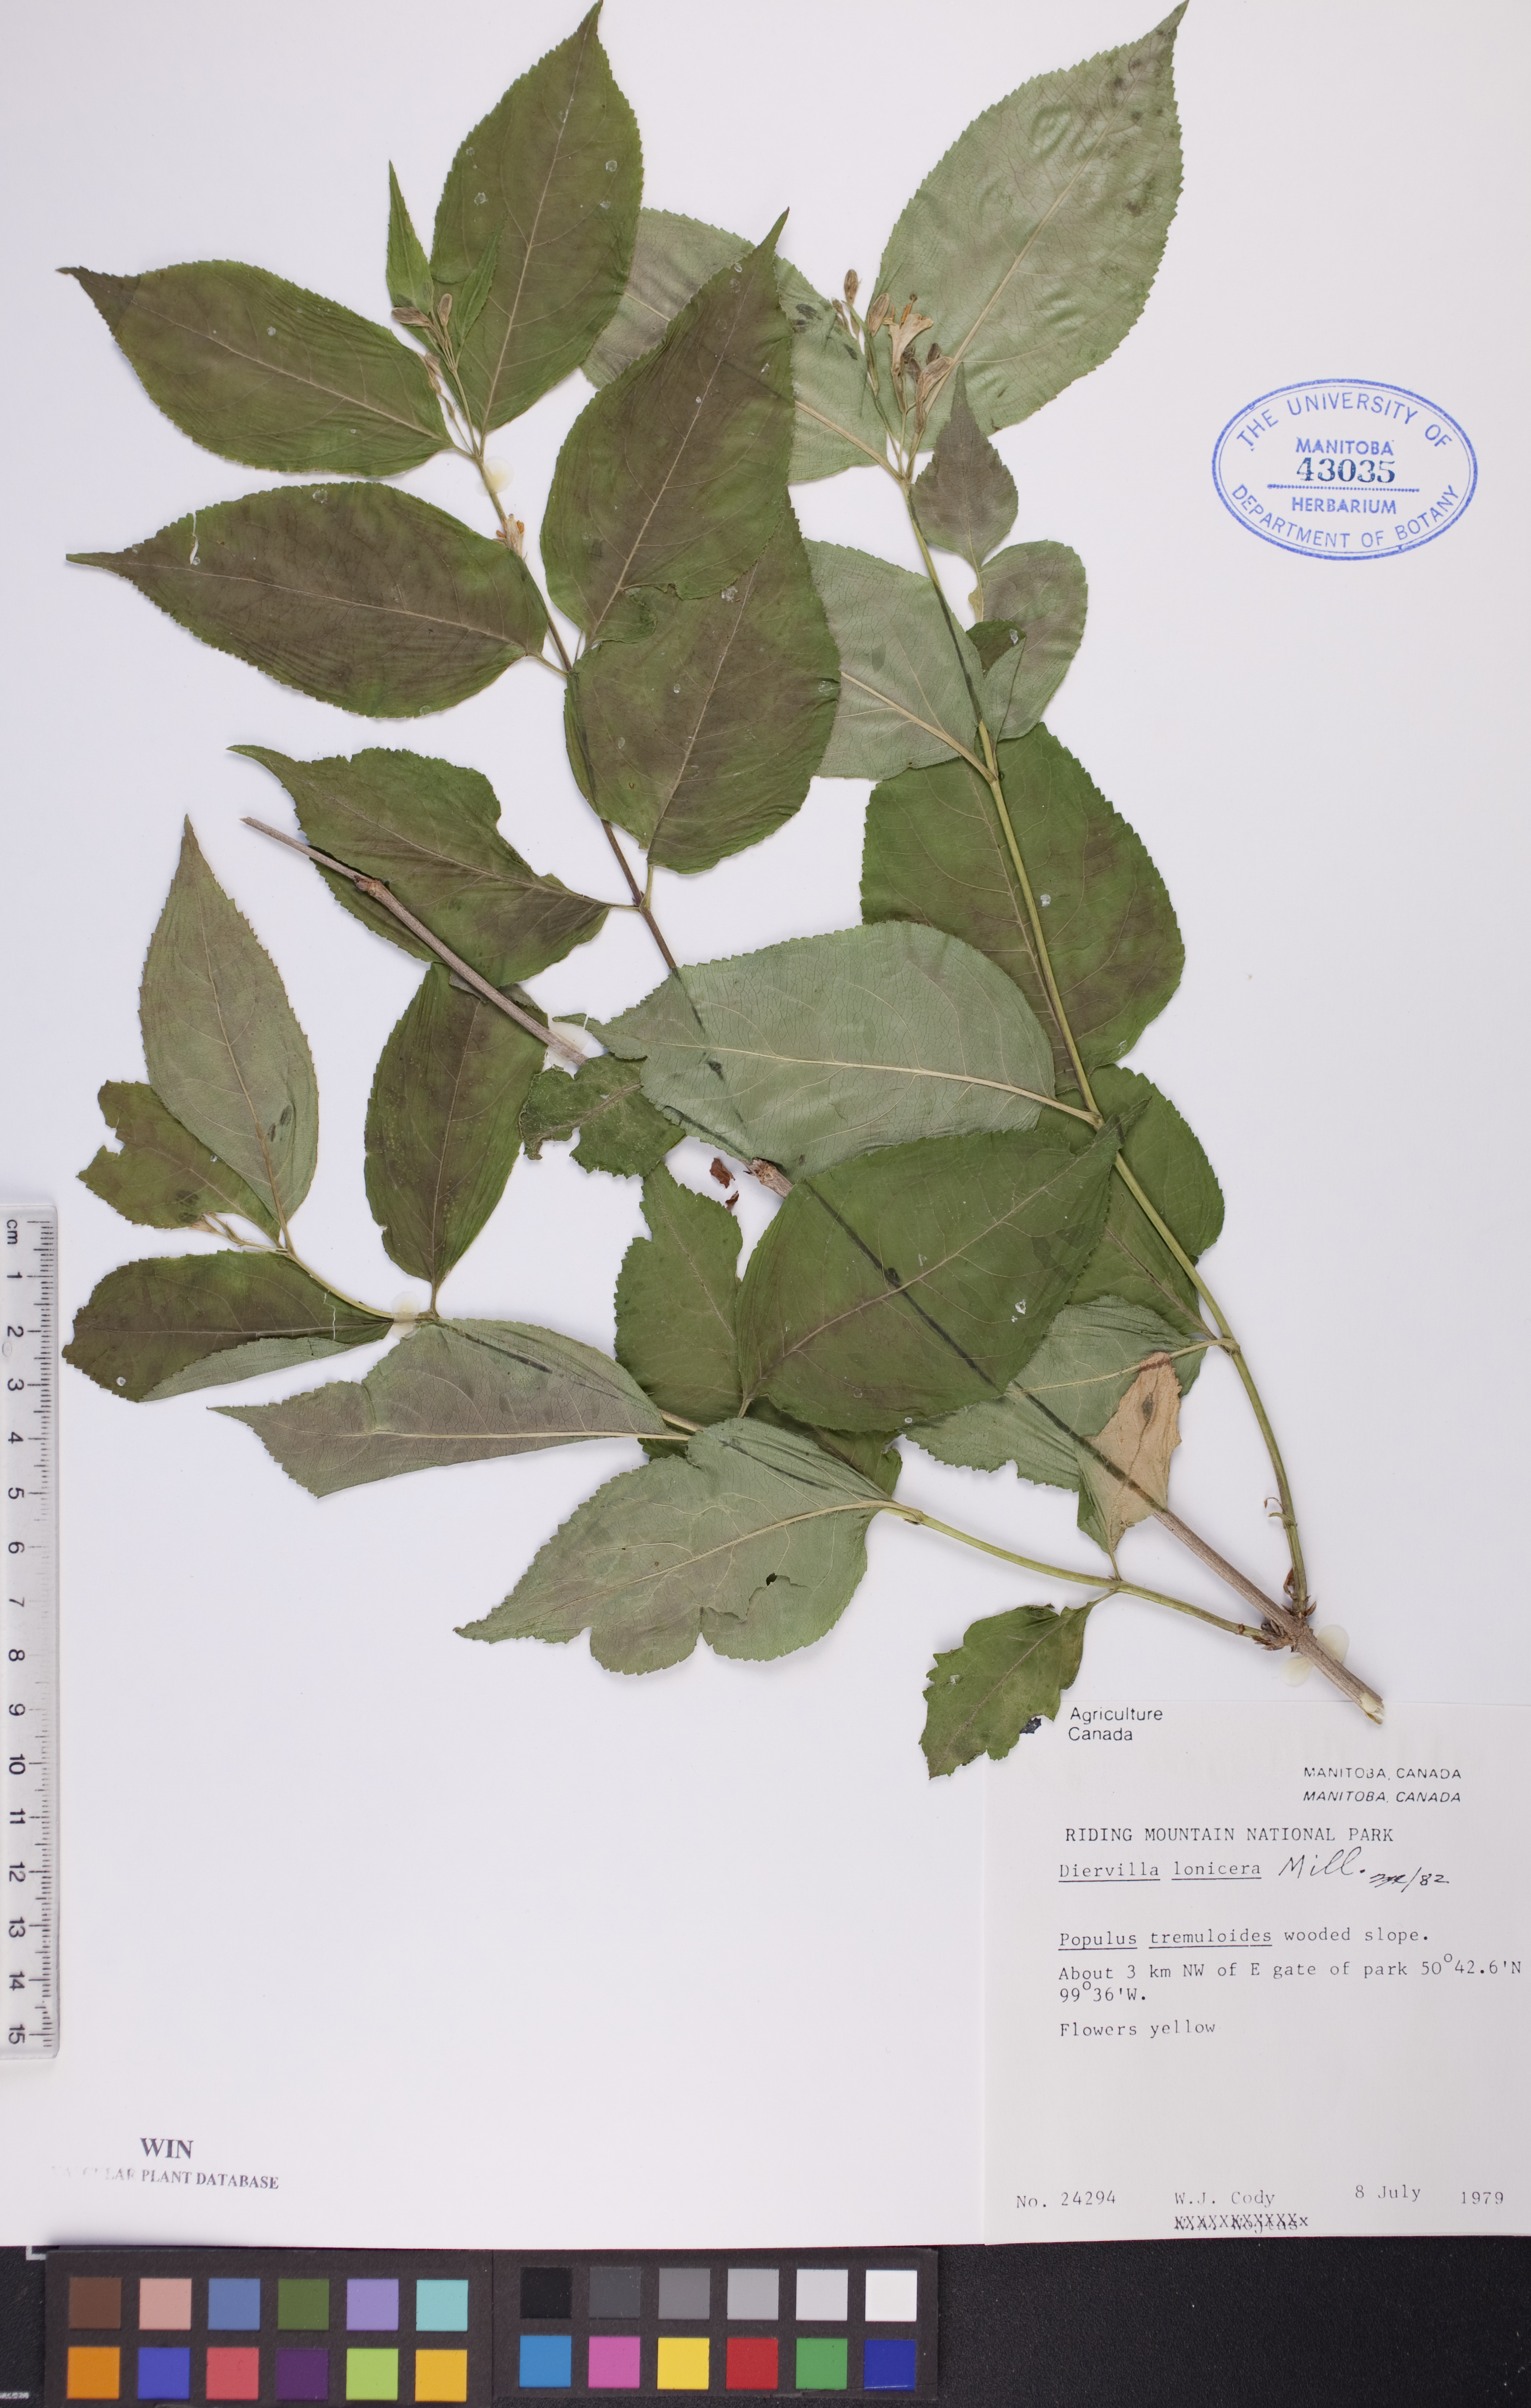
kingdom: Plantae
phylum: Tracheophyta
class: Magnoliopsida
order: Dipsacales
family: Caprifoliaceae
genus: Diervilla
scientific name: Diervilla lonicera
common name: Bush-honeysuckle
